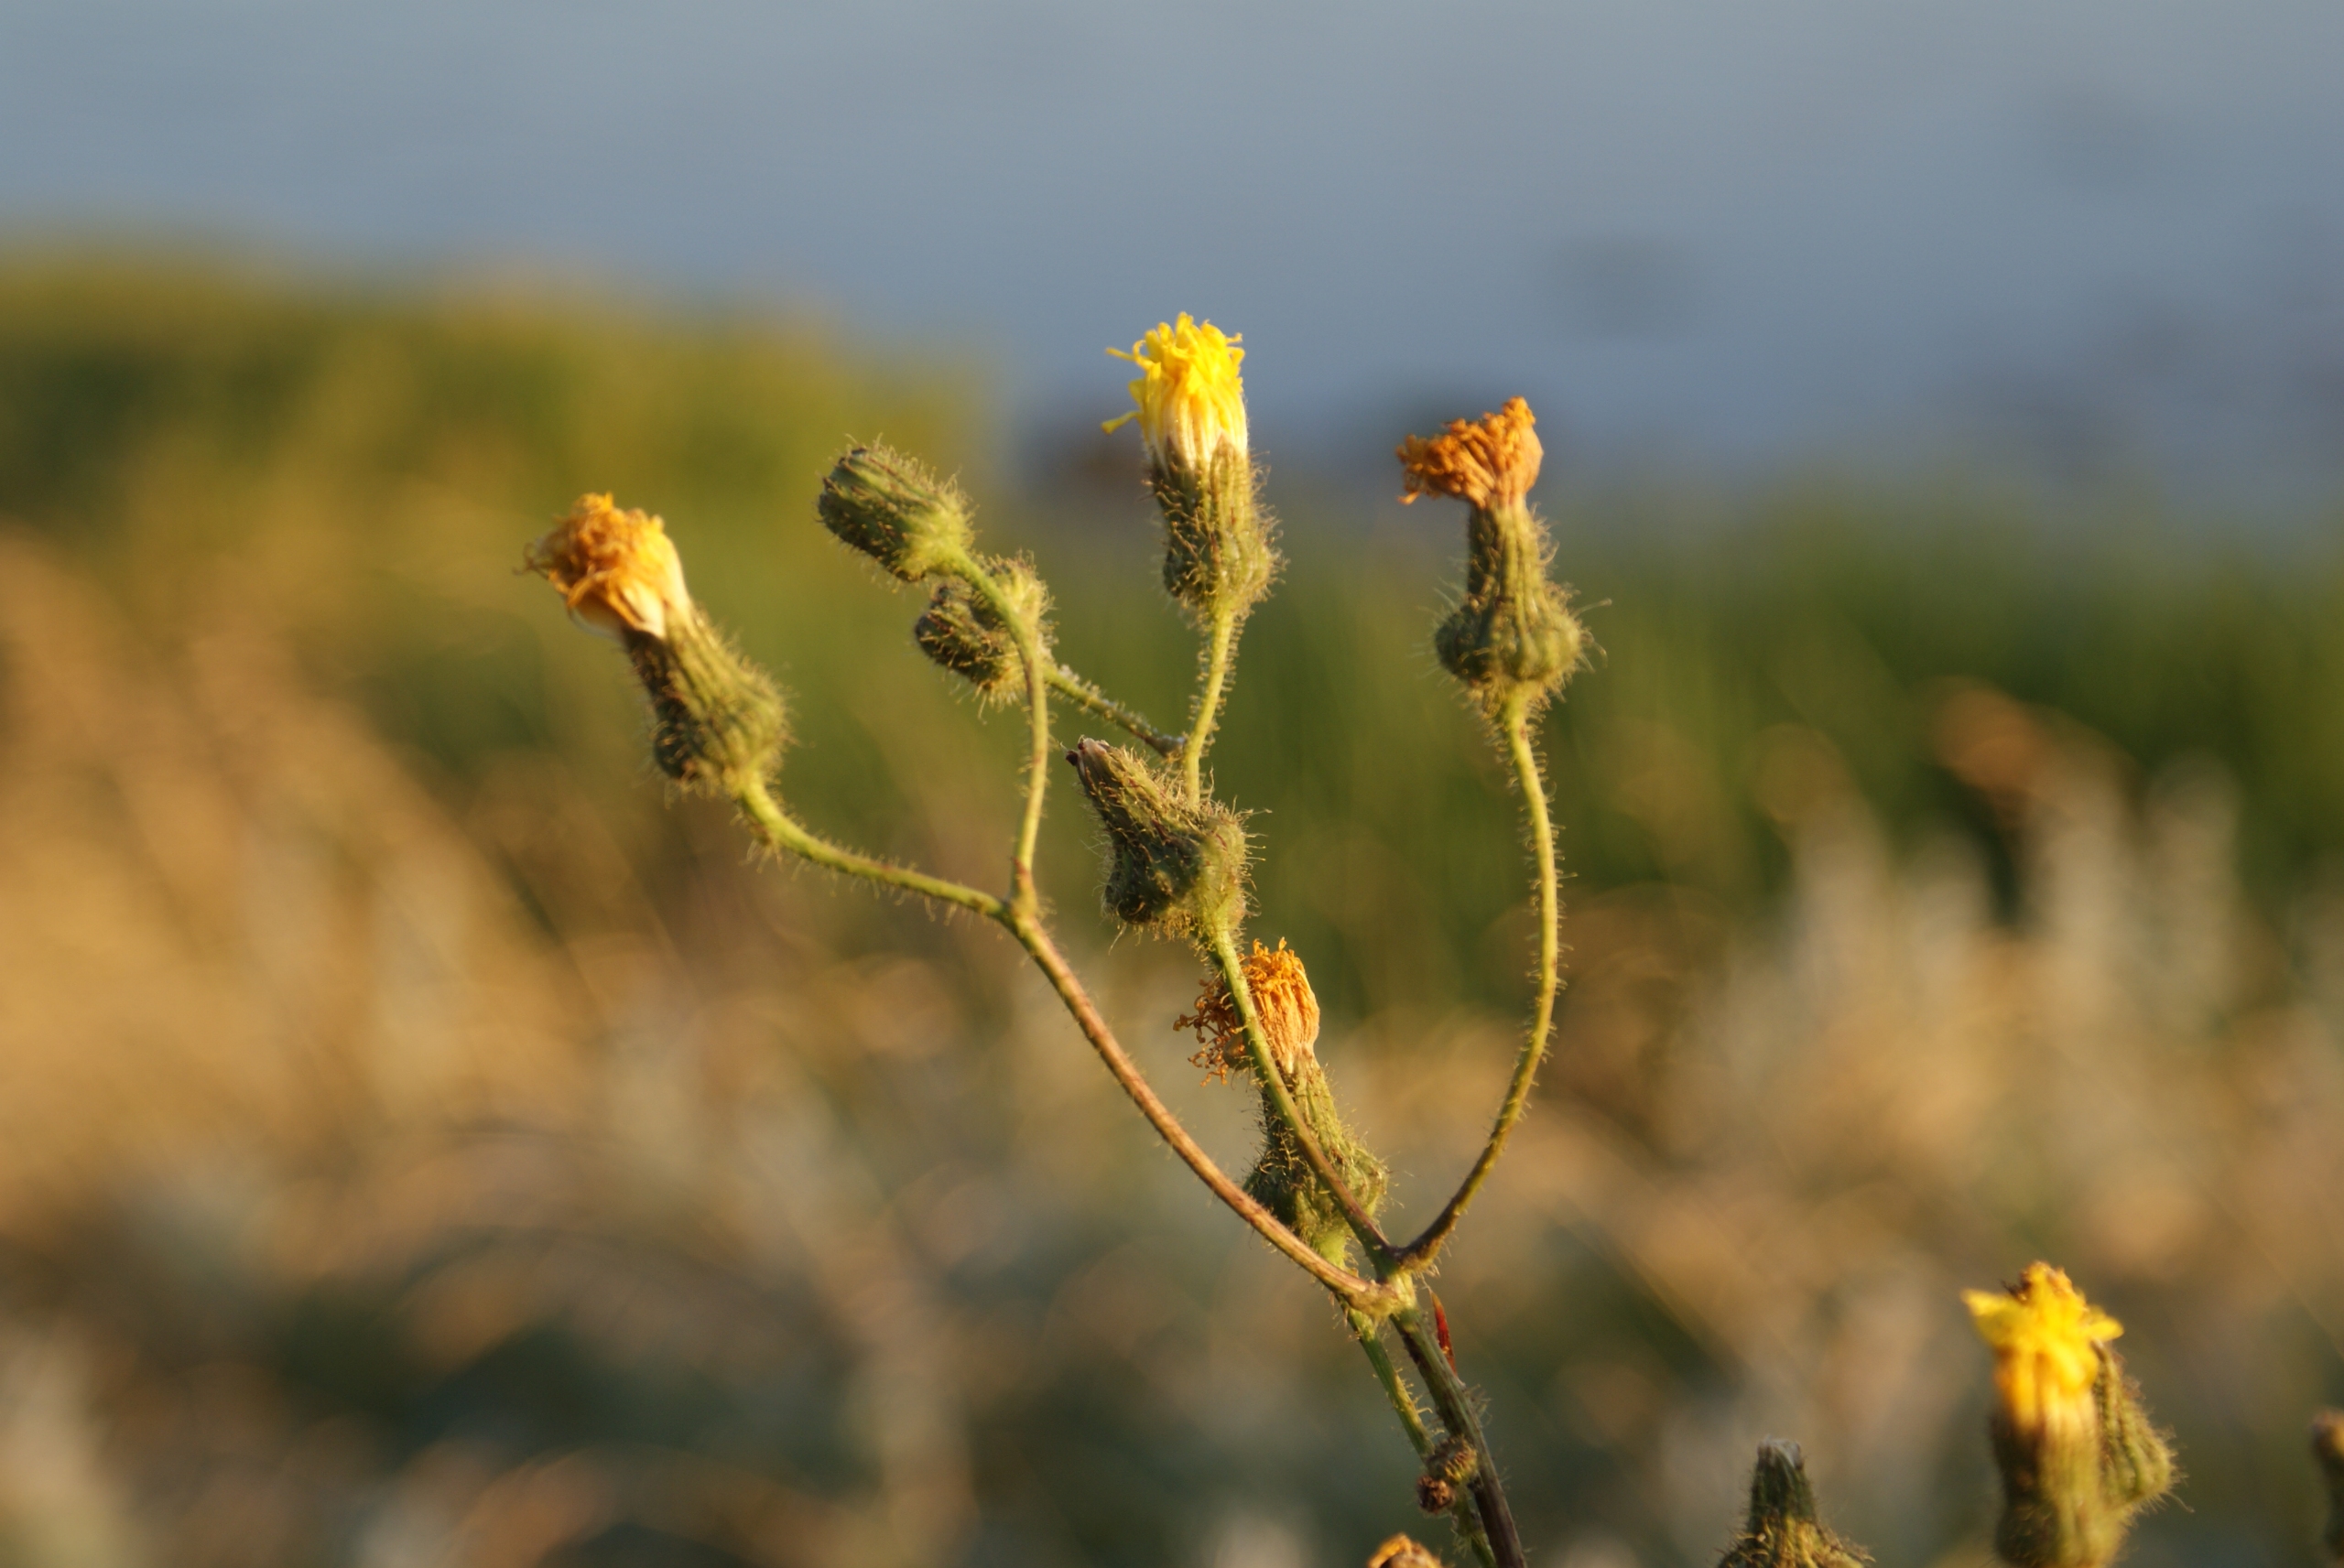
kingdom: Plantae
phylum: Tracheophyta
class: Magnoliopsida
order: Asterales
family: Asteraceae
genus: Sonchus
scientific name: Sonchus arvensis
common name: Ager-svinemælk
